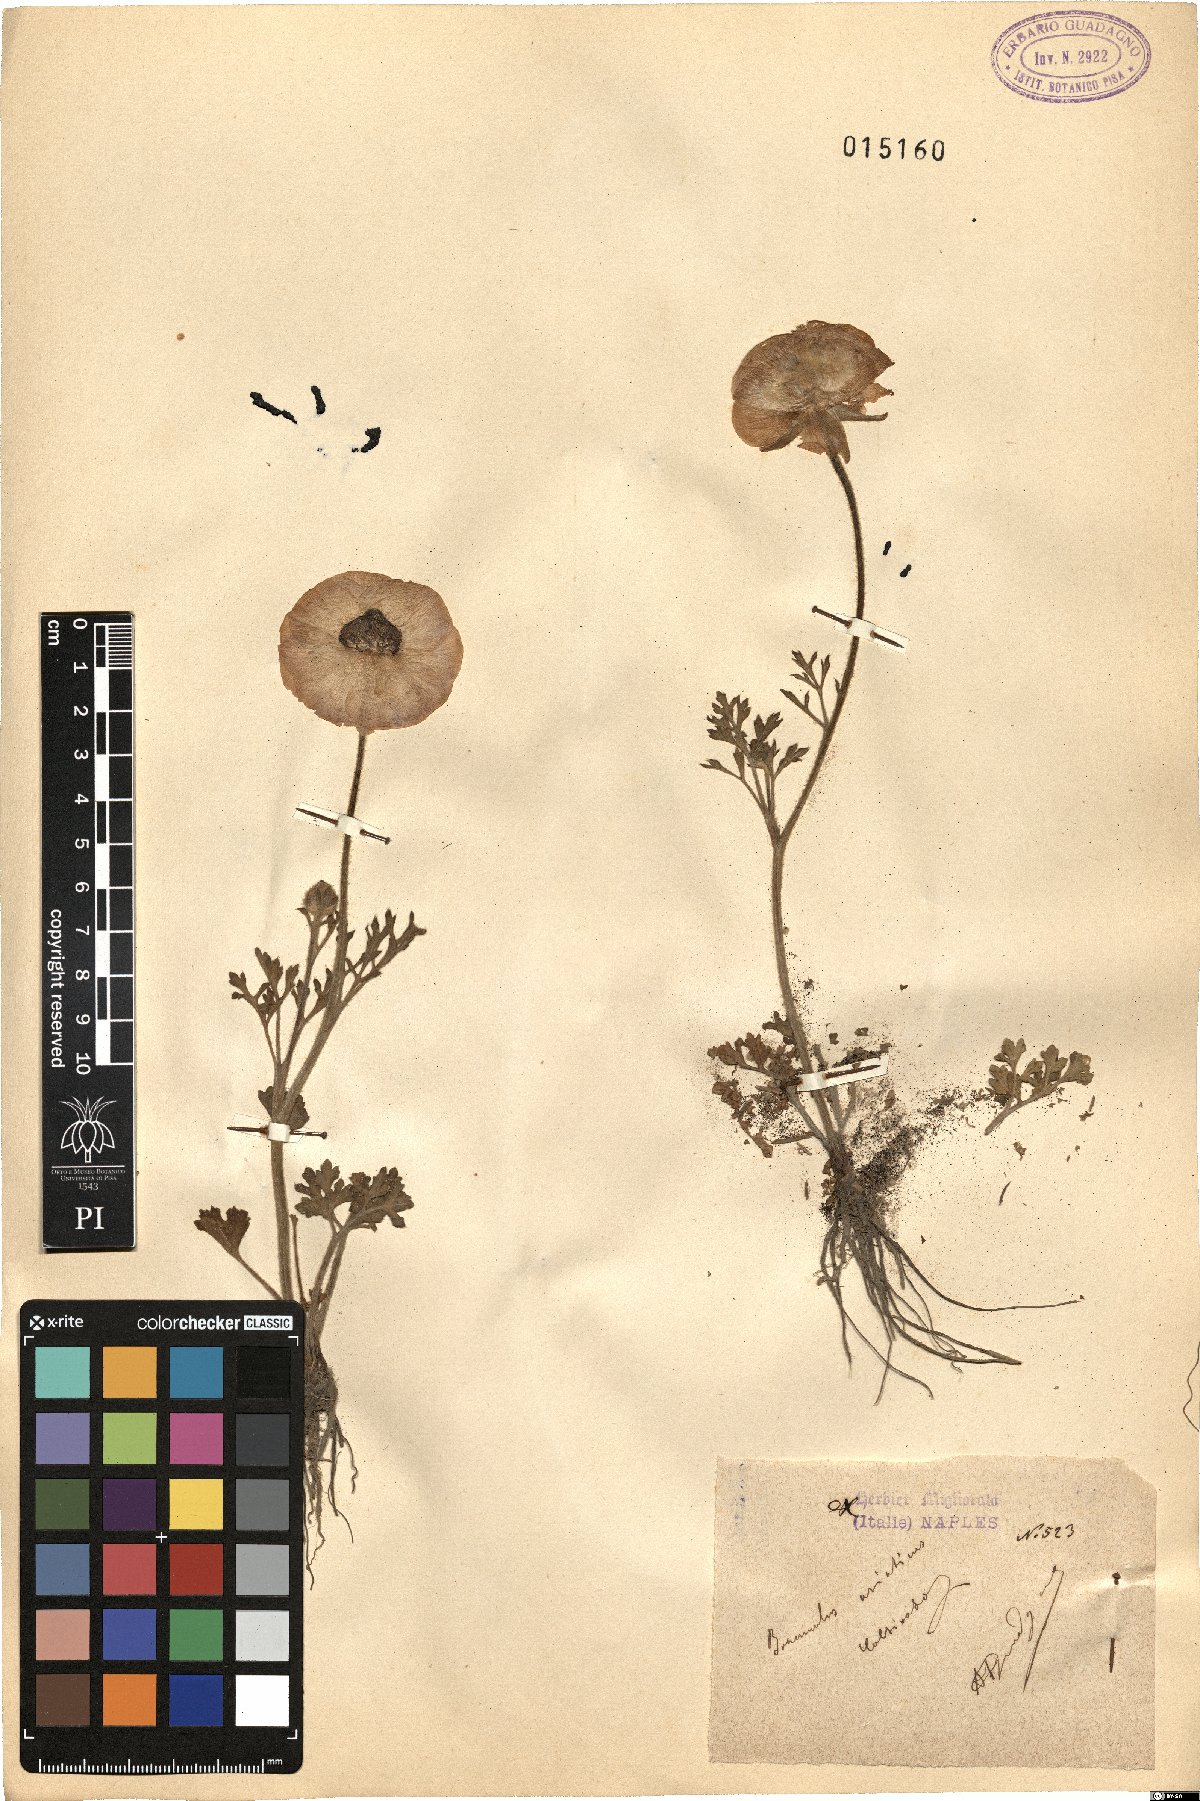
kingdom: Plantae
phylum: Tracheophyta
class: Magnoliopsida
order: Ranunculales
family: Ranunculaceae
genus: Ranunculus
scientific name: Ranunculus asiaticus
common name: Persian buttercup
